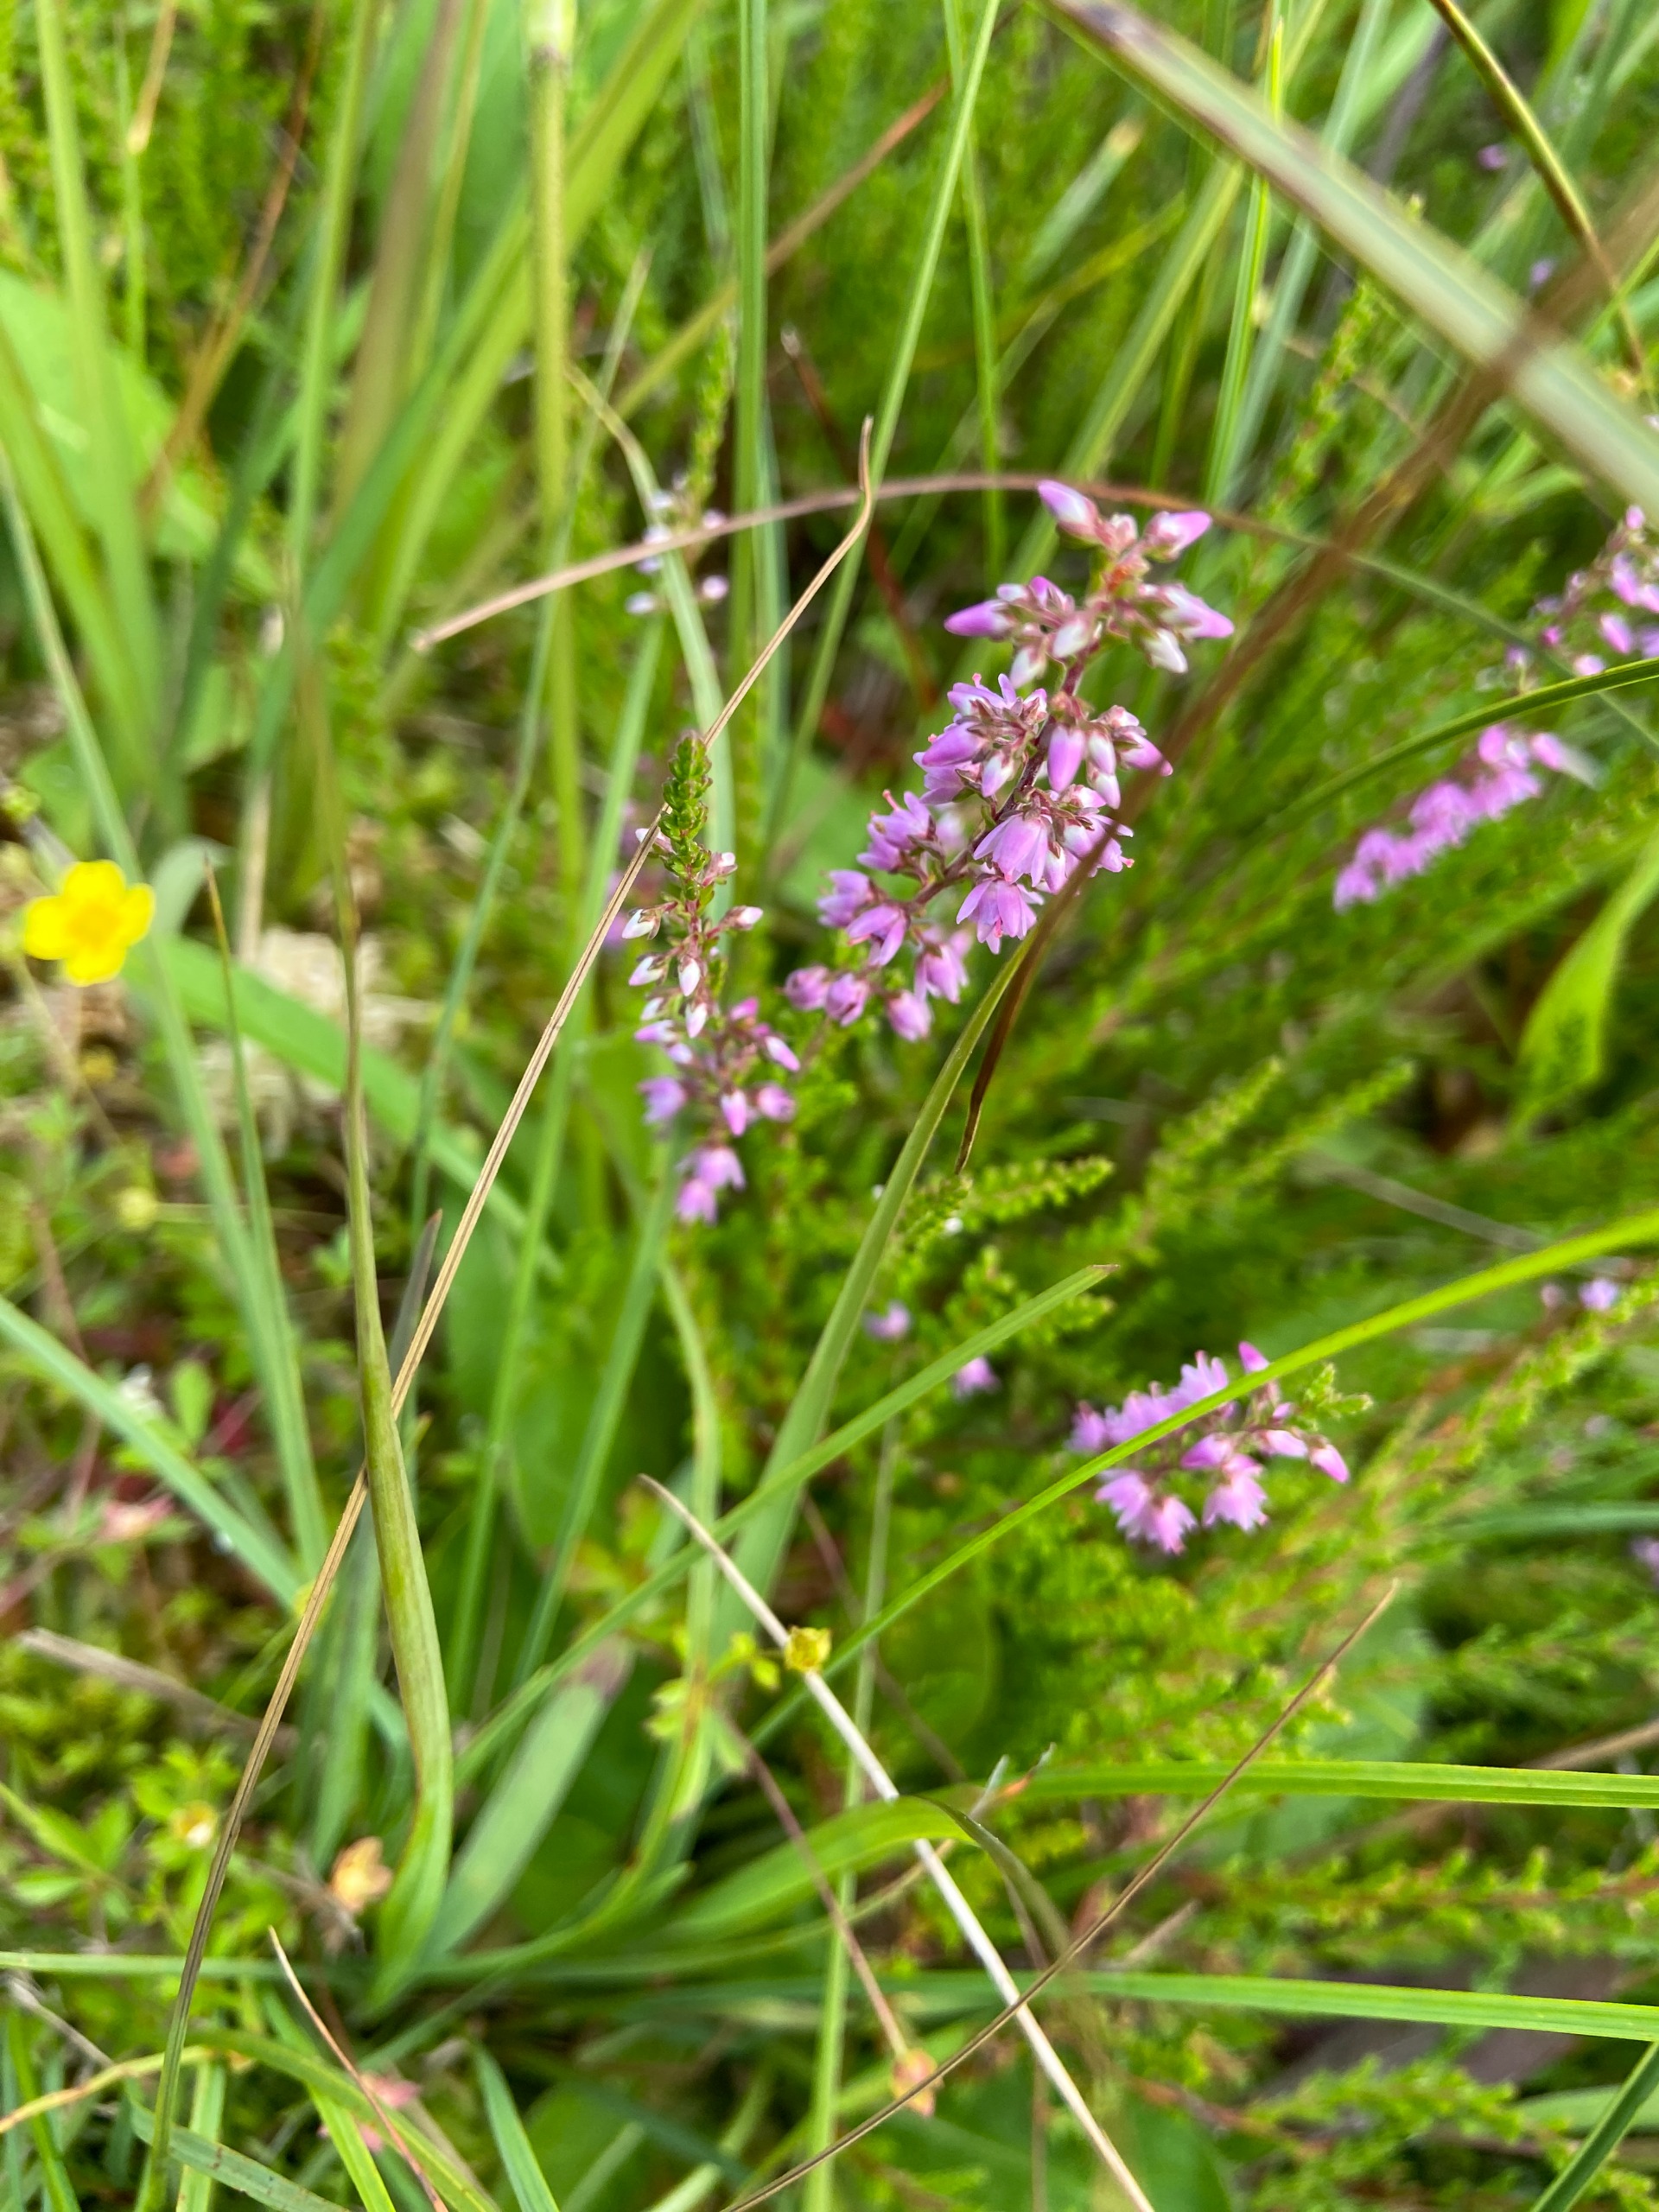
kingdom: Plantae
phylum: Tracheophyta
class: Magnoliopsida
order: Ericales
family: Ericaceae
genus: Calluna
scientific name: Calluna vulgaris
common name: Hedelyng
